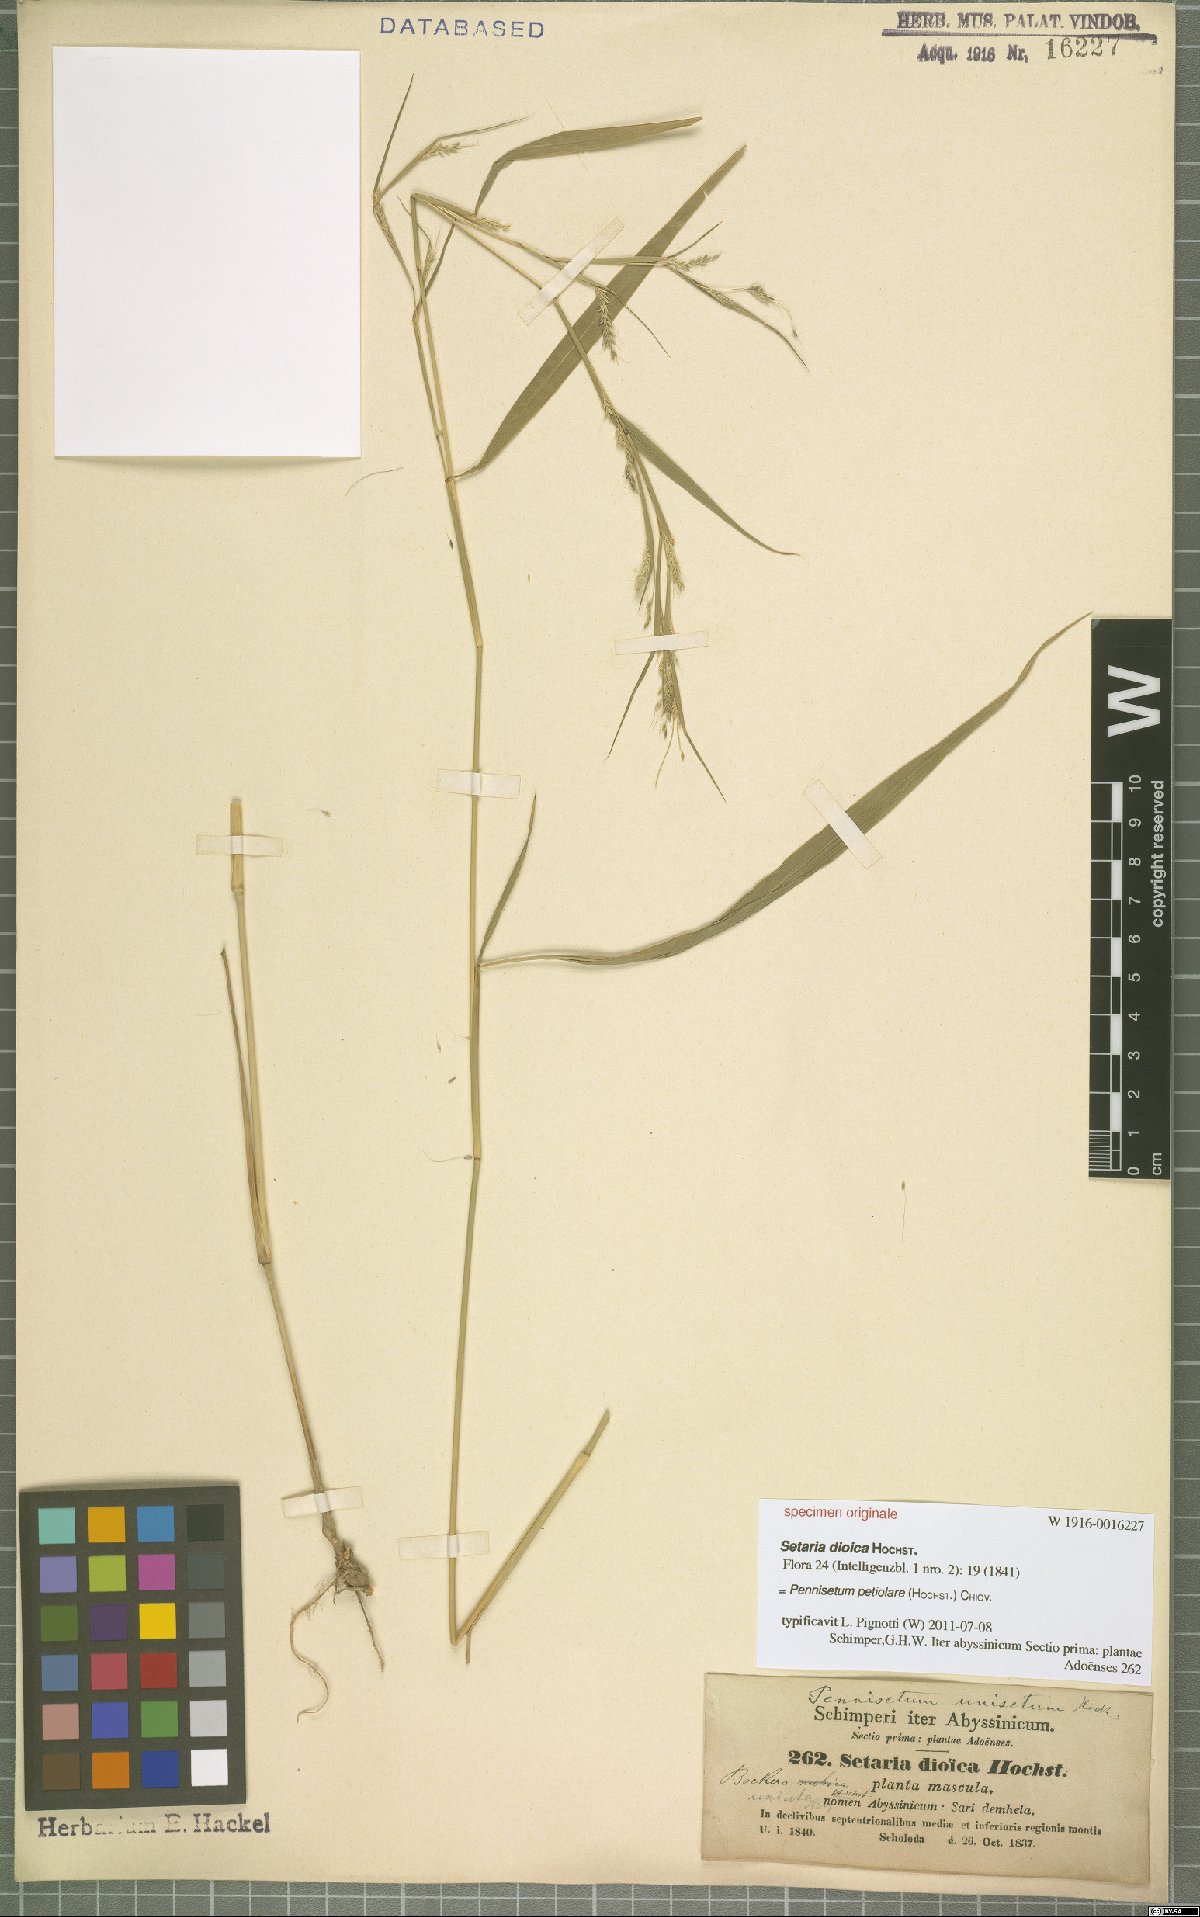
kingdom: Plantae
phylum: Tracheophyta
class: Liliopsida
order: Poales
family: Poaceae
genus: Cenchrus
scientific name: Cenchrus petiolaris
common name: Grass
